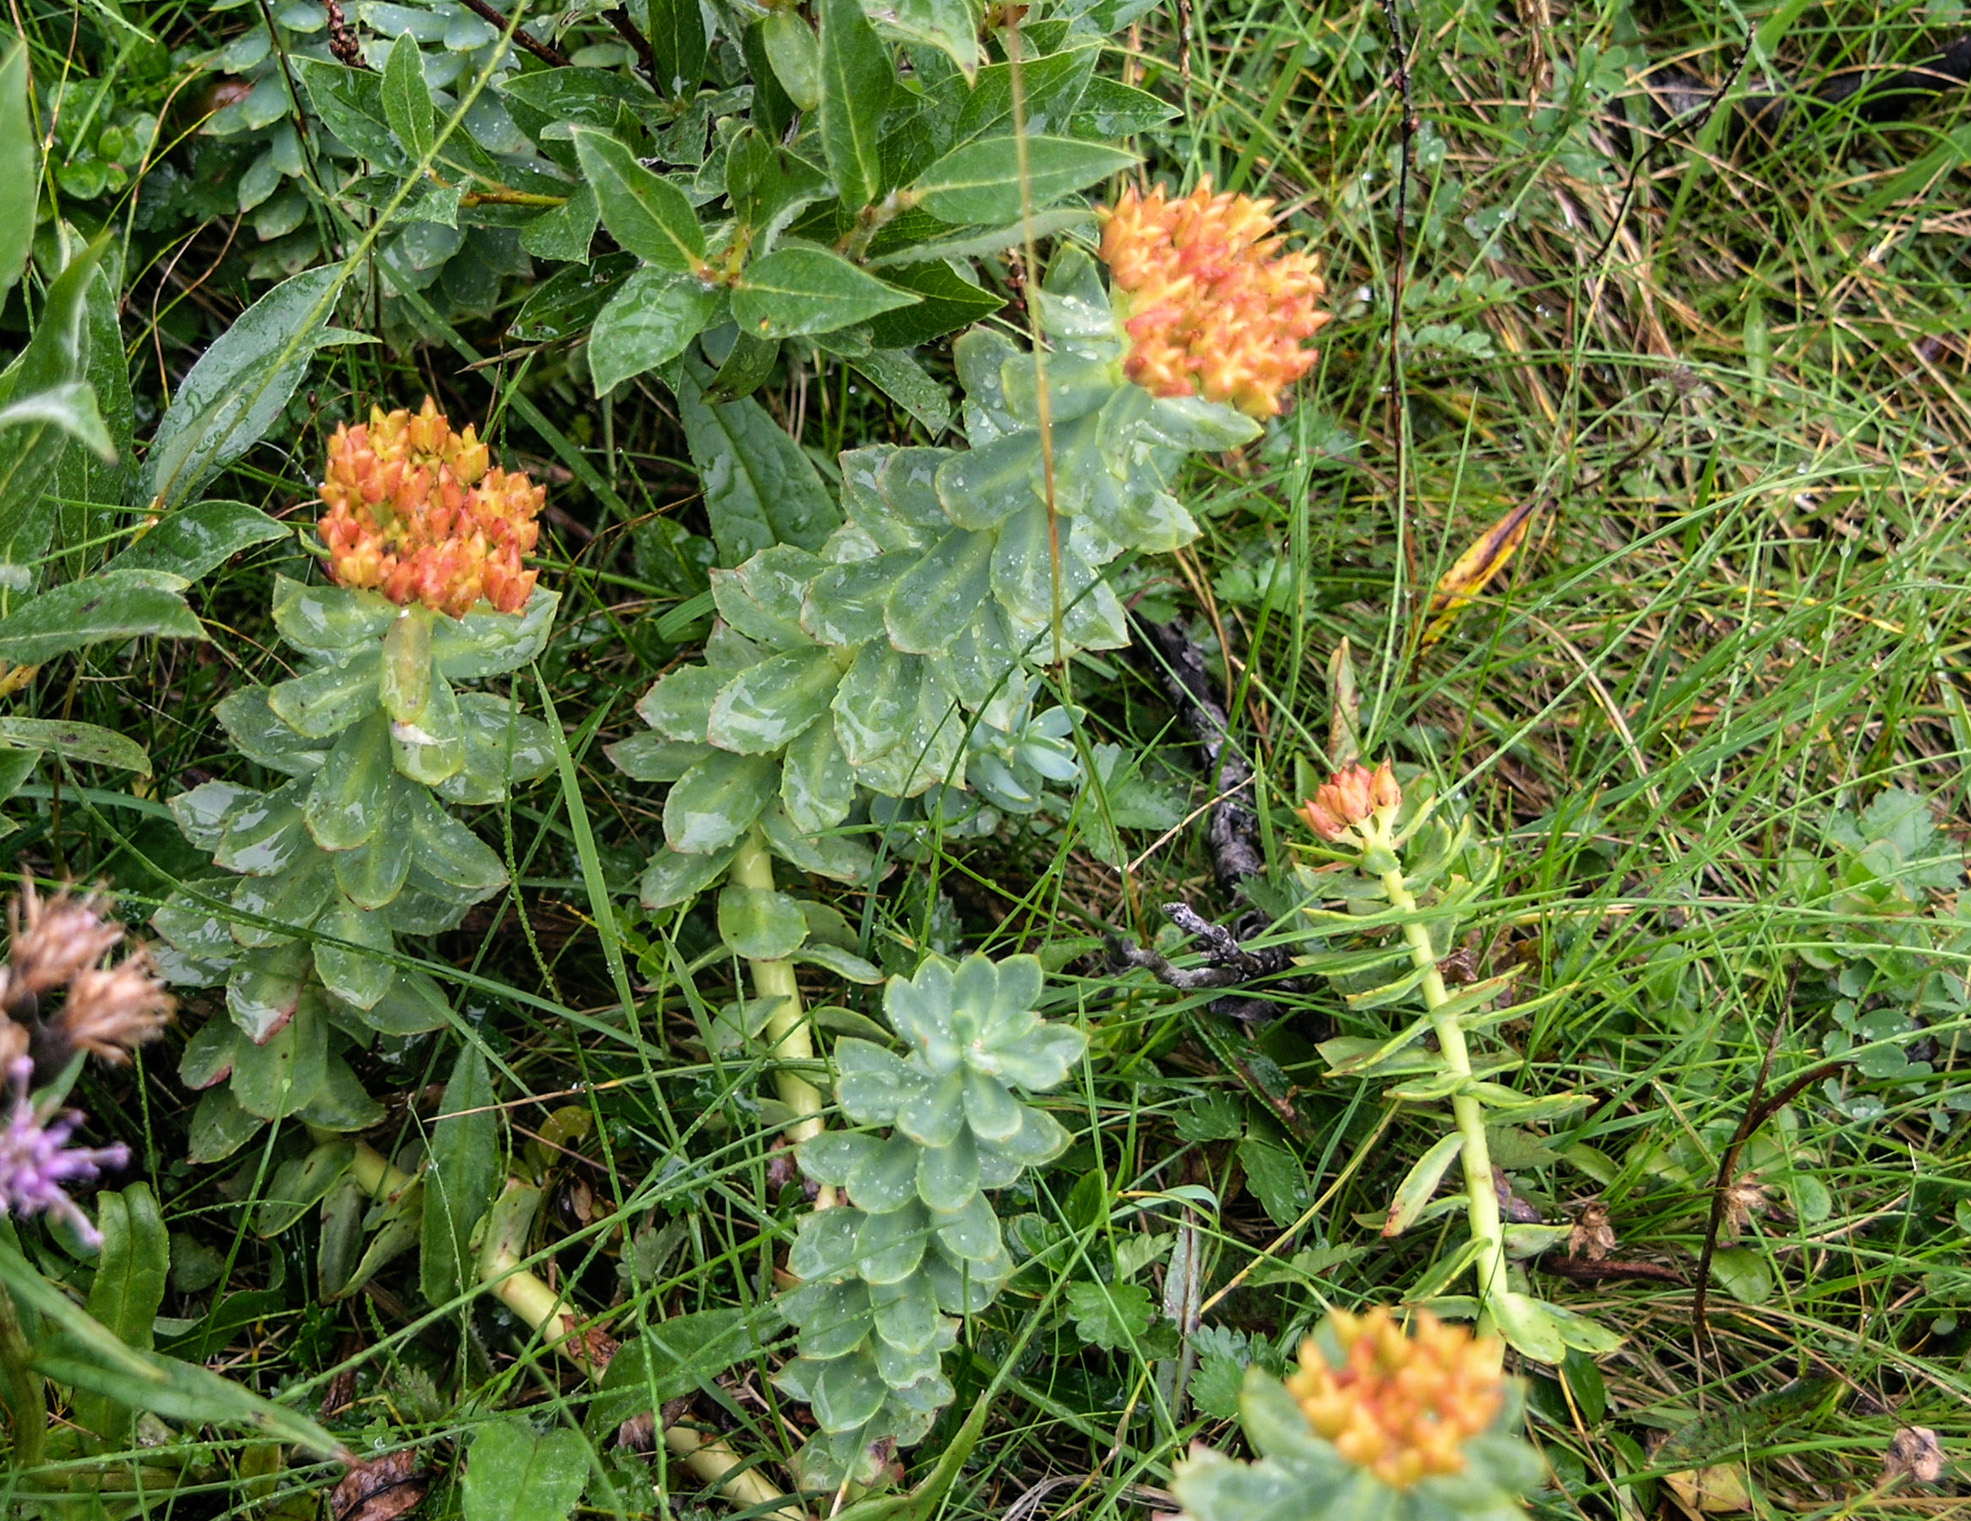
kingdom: Plantae
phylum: Tracheophyta
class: Magnoliopsida
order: Saxifragales
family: Crassulaceae
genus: Rhodiola
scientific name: Rhodiola rosea
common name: Roseroot
